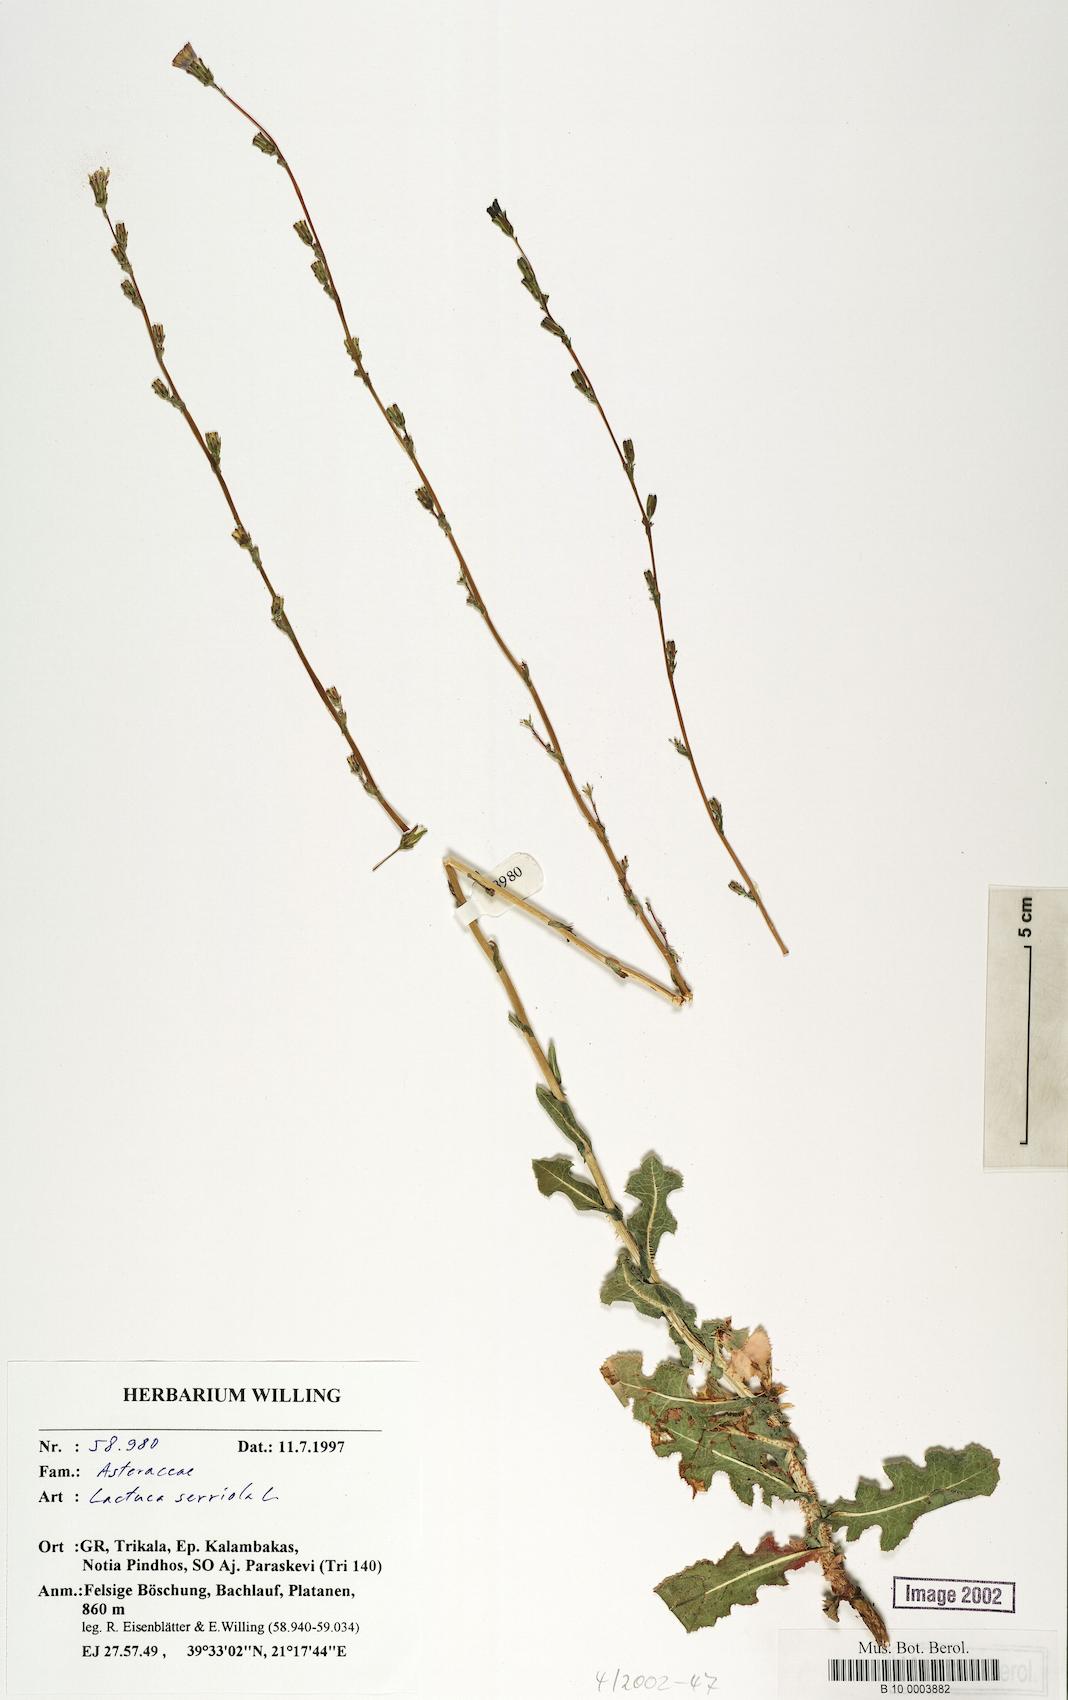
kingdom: Plantae
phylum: Tracheophyta
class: Magnoliopsida
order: Asterales
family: Asteraceae
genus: Lactuca
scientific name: Lactuca serriola
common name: Prickly lettuce
